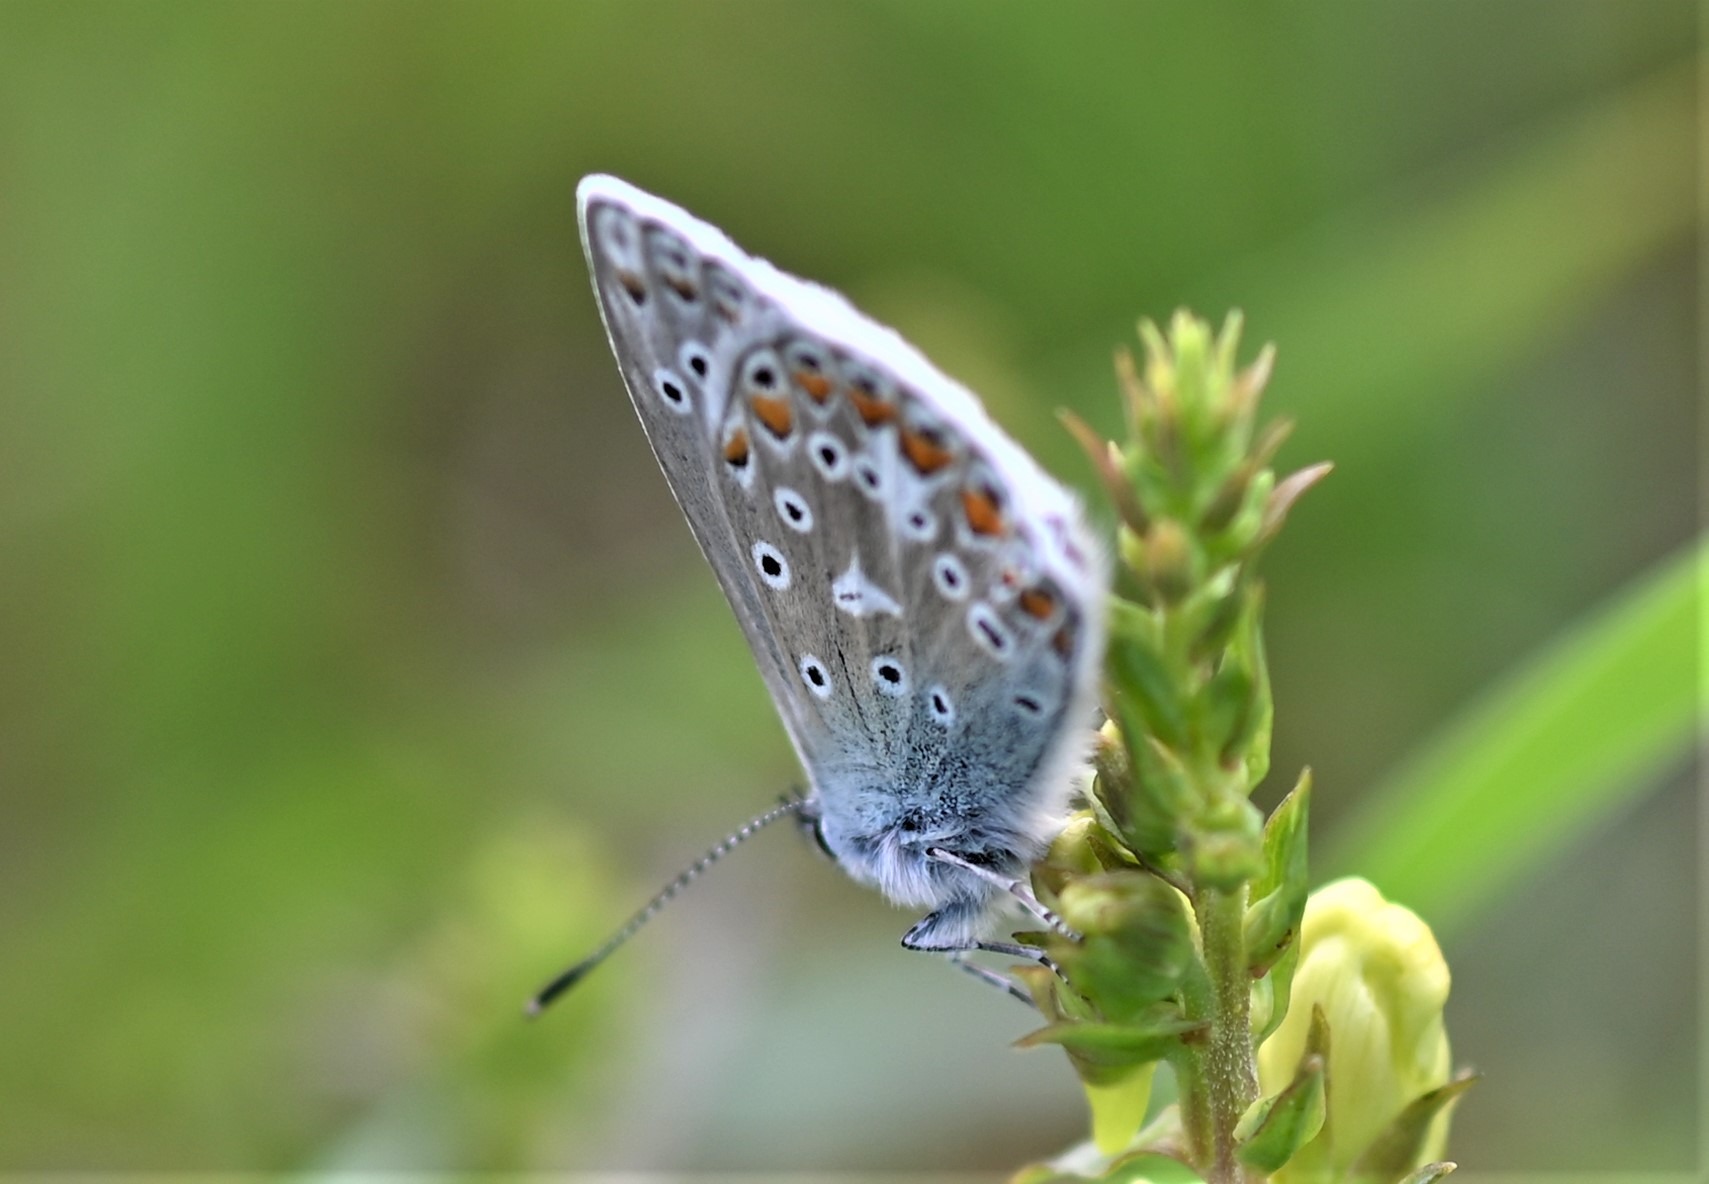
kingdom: Animalia
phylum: Arthropoda
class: Insecta
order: Lepidoptera
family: Lycaenidae
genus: Polyommatus
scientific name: Polyommatus icarus
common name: Almindelig blåfugl
